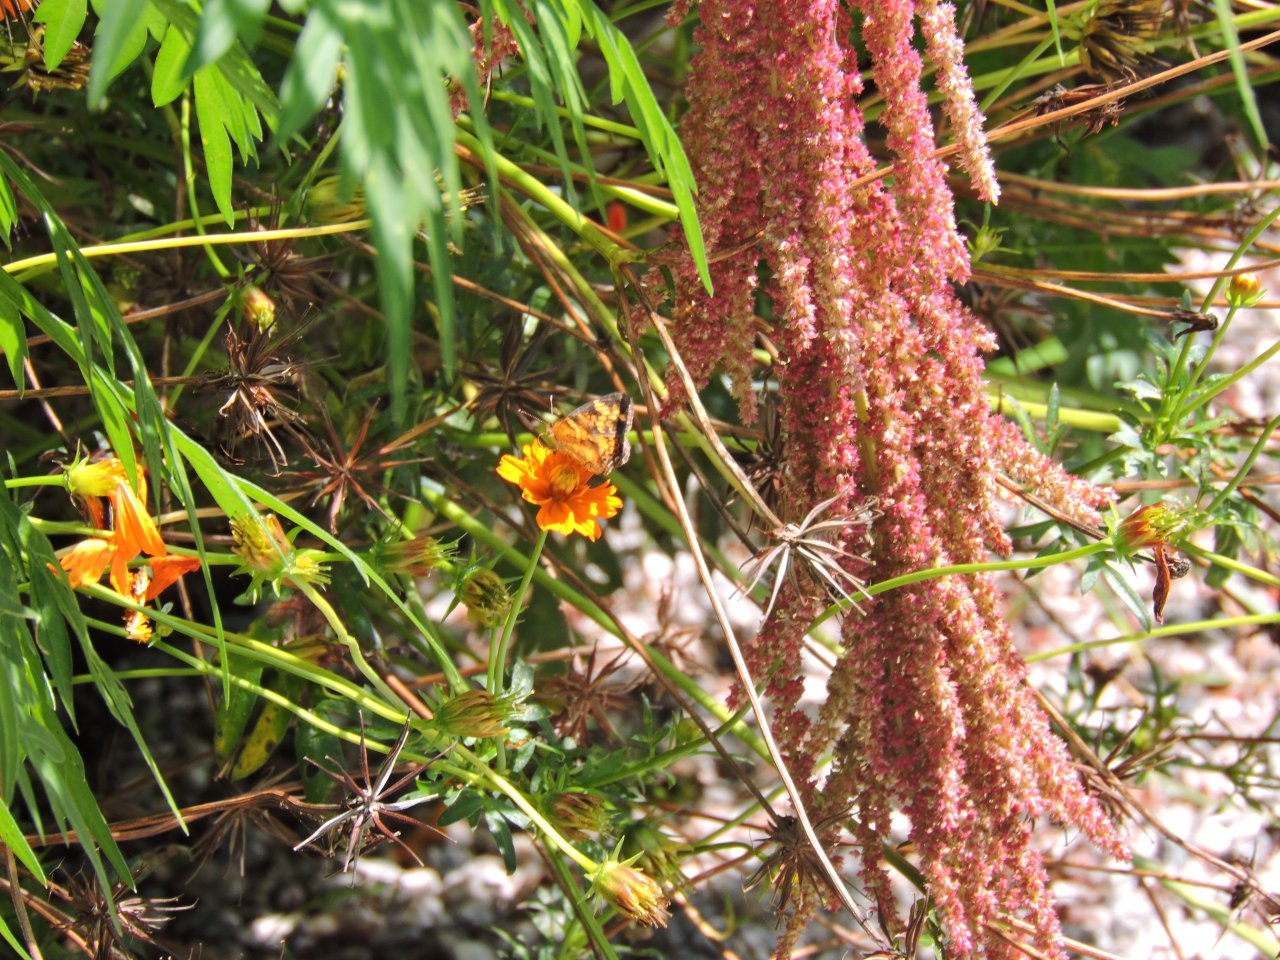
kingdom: Animalia
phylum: Arthropoda
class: Insecta
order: Lepidoptera
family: Nymphalidae
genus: Phyciodes
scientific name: Phyciodes tharos
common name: Pearl Crescent
